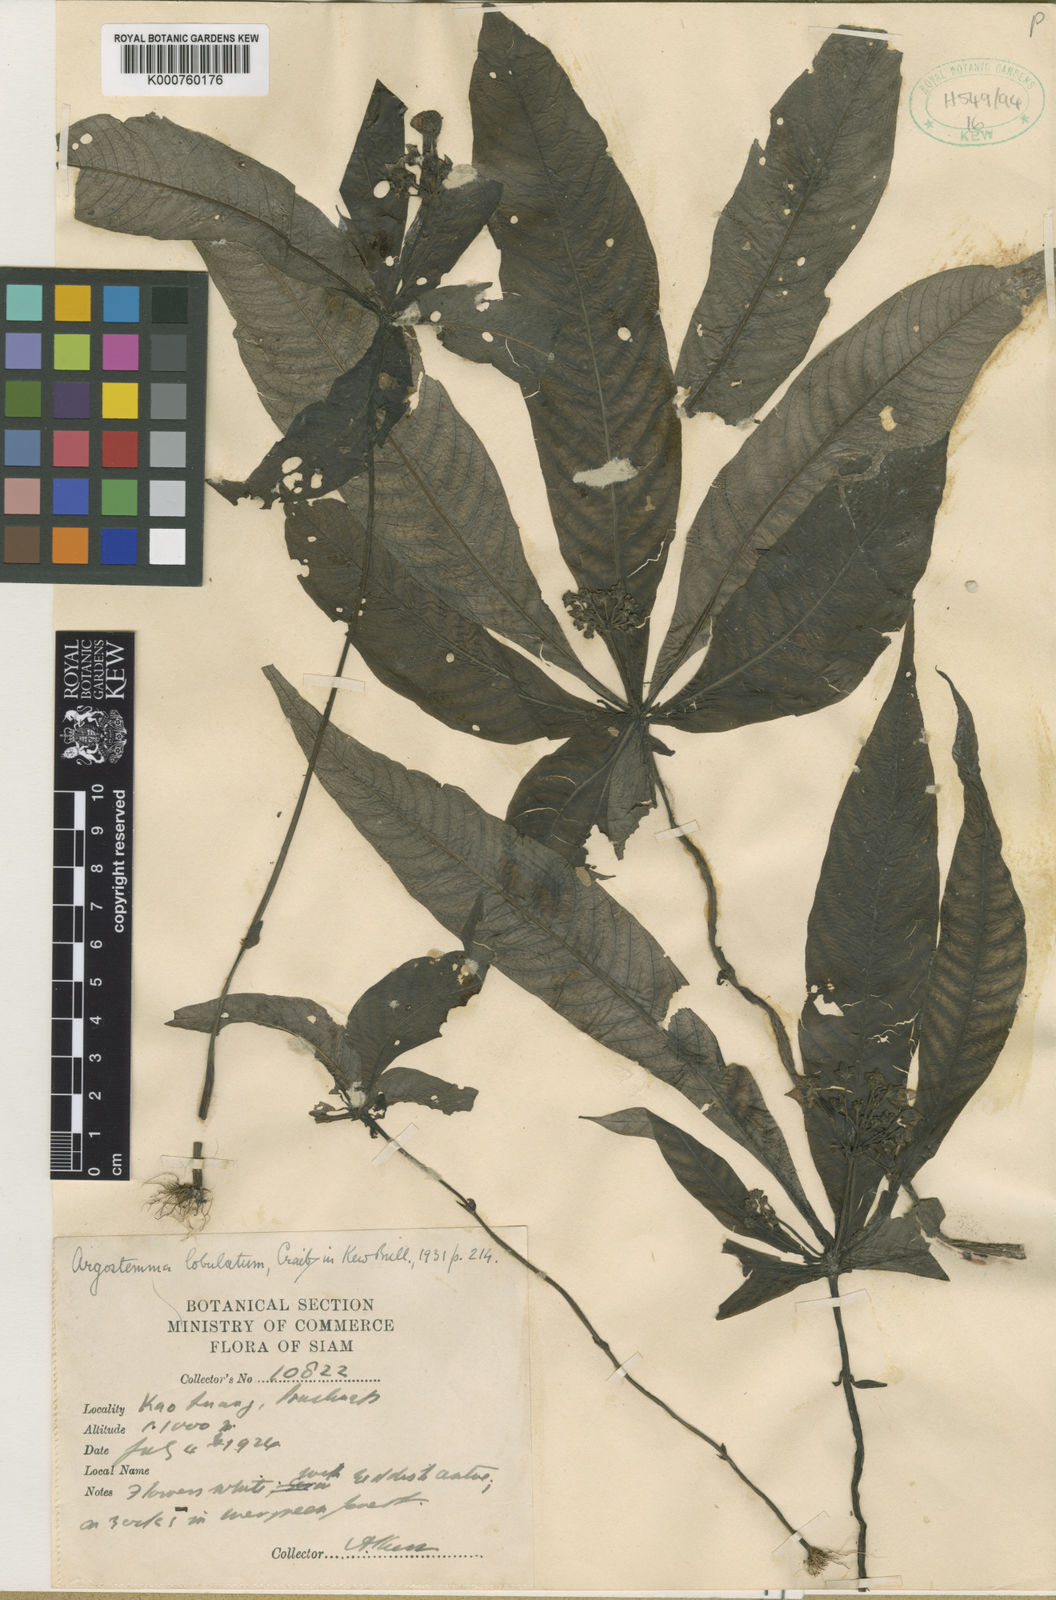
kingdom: Plantae
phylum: Tracheophyta
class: Magnoliopsida
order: Gentianales
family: Rubiaceae
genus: Argostemma
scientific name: Argostemma lobulatum
